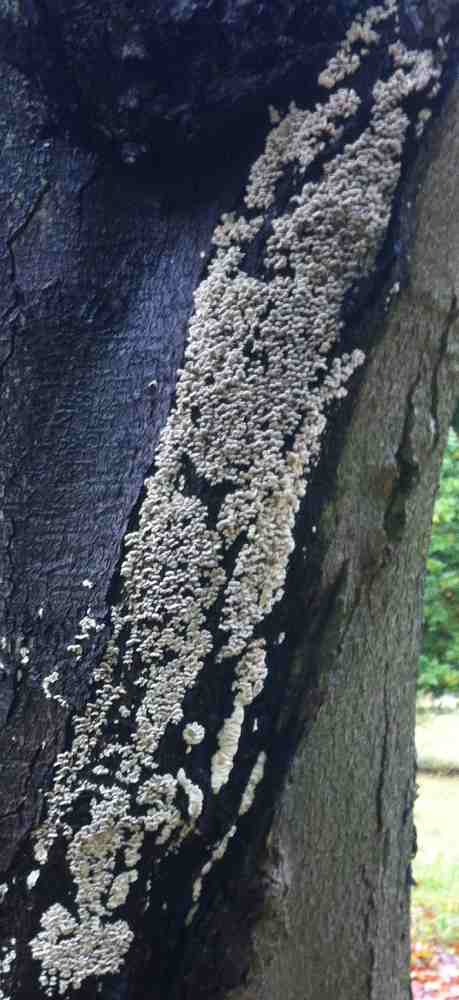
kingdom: Fungi
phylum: Basidiomycota
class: Agaricomycetes
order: Amylocorticiales
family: Amylocorticiaceae
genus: Plicaturopsis
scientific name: Plicaturopsis crispa
